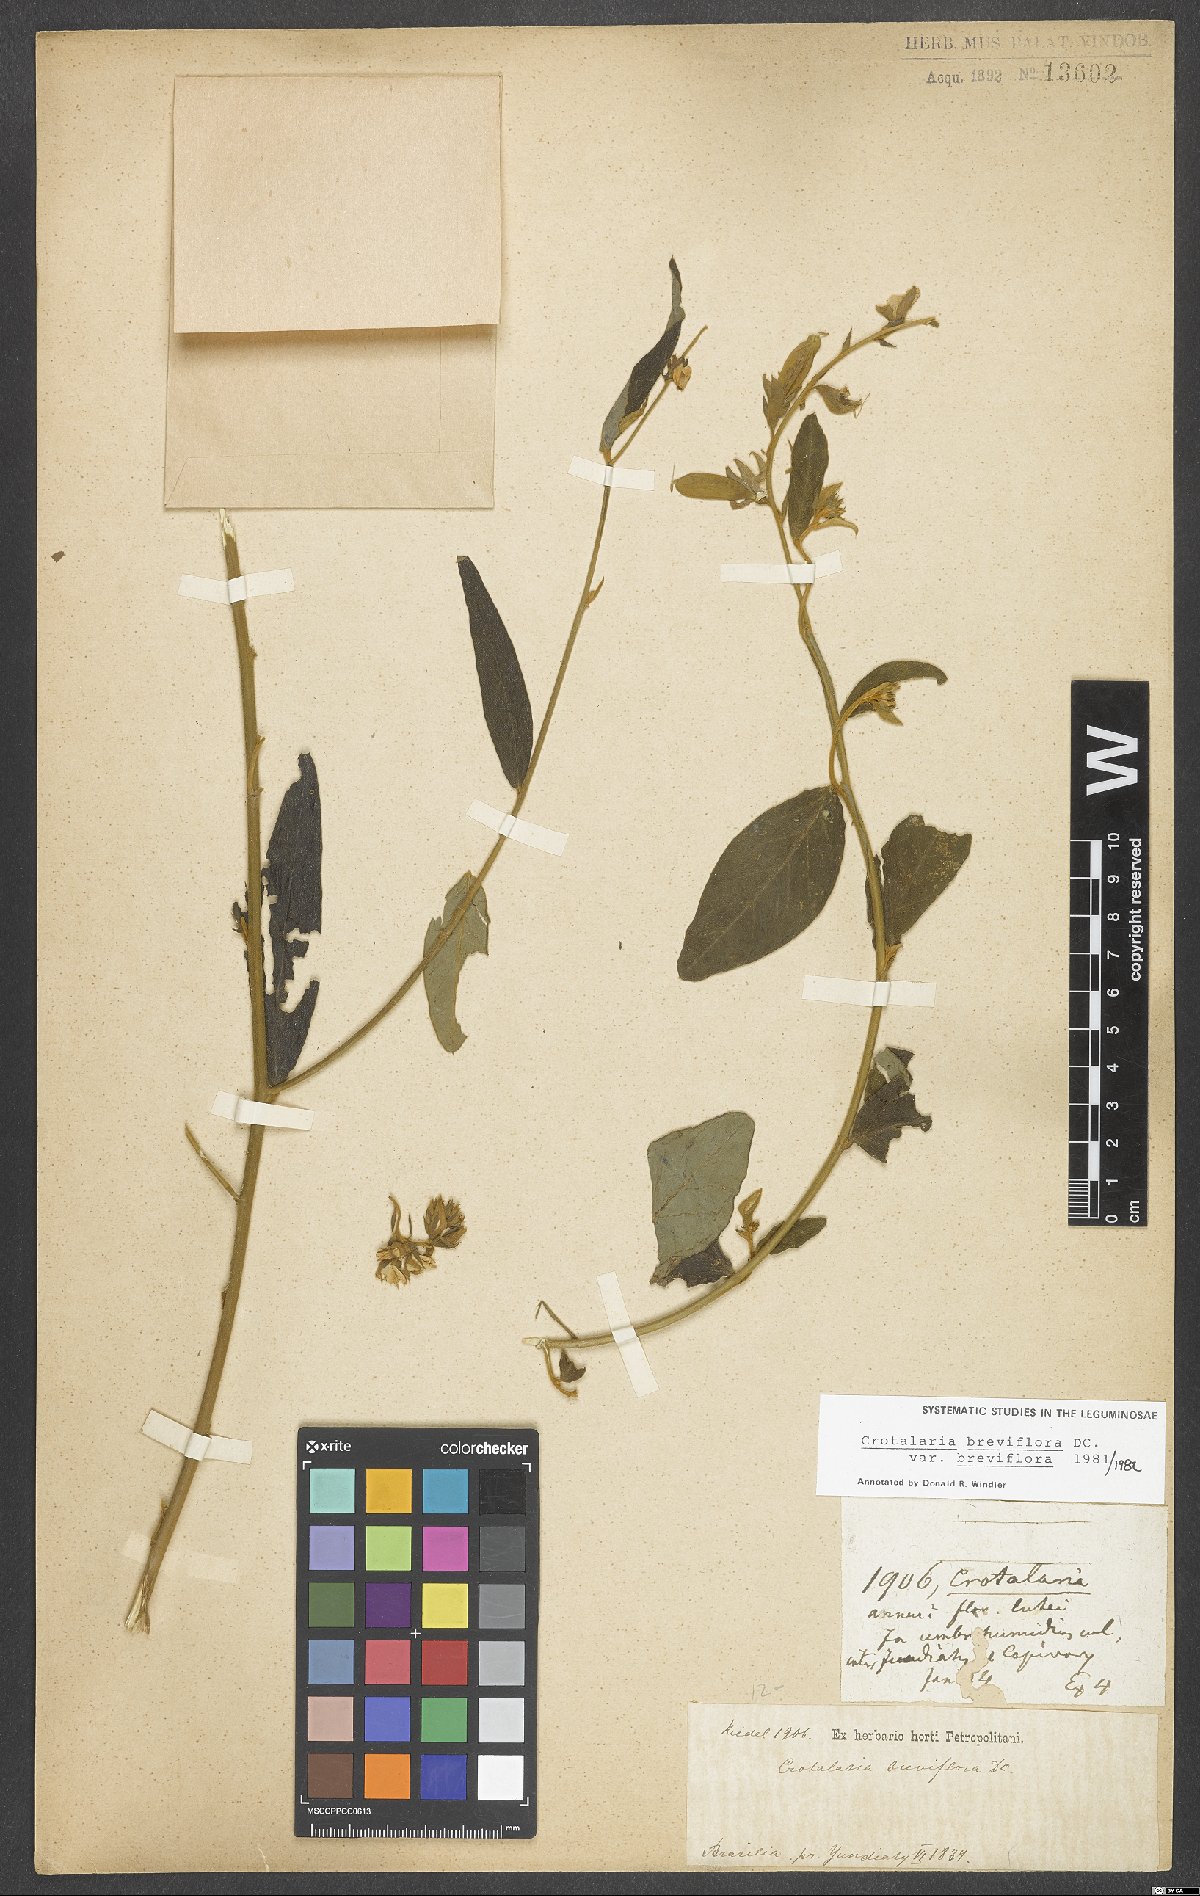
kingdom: Plantae
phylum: Tracheophyta
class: Magnoliopsida
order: Fabales
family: Fabaceae
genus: Crotalaria
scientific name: Crotalaria breviflora
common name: Short-flower crotalaria
